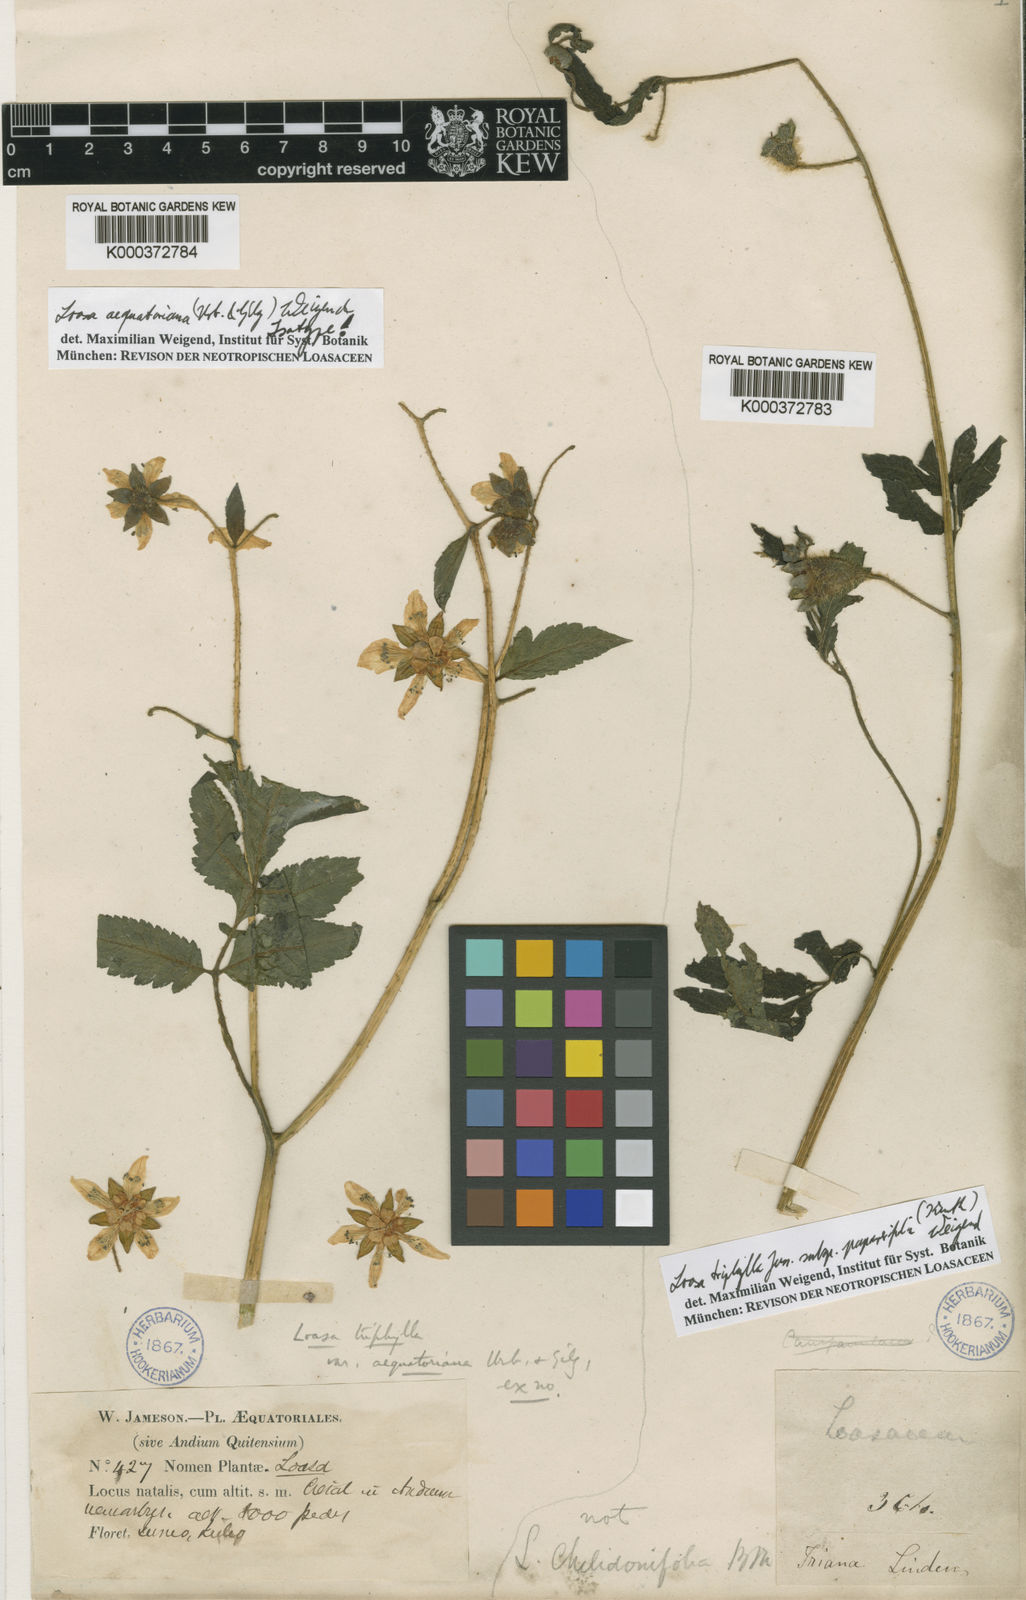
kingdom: Plantae
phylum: Tracheophyta
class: Magnoliopsida
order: Cornales
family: Loasaceae
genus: Nasa
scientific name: Nasa aequatoriana
